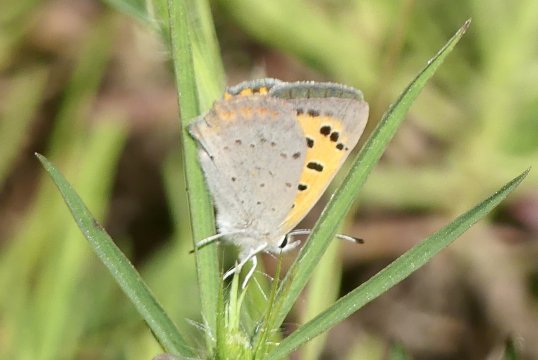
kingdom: Animalia
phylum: Arthropoda
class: Insecta
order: Lepidoptera
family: Lycaenidae
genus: Lycaena
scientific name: Lycaena phlaeas
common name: American Copper
